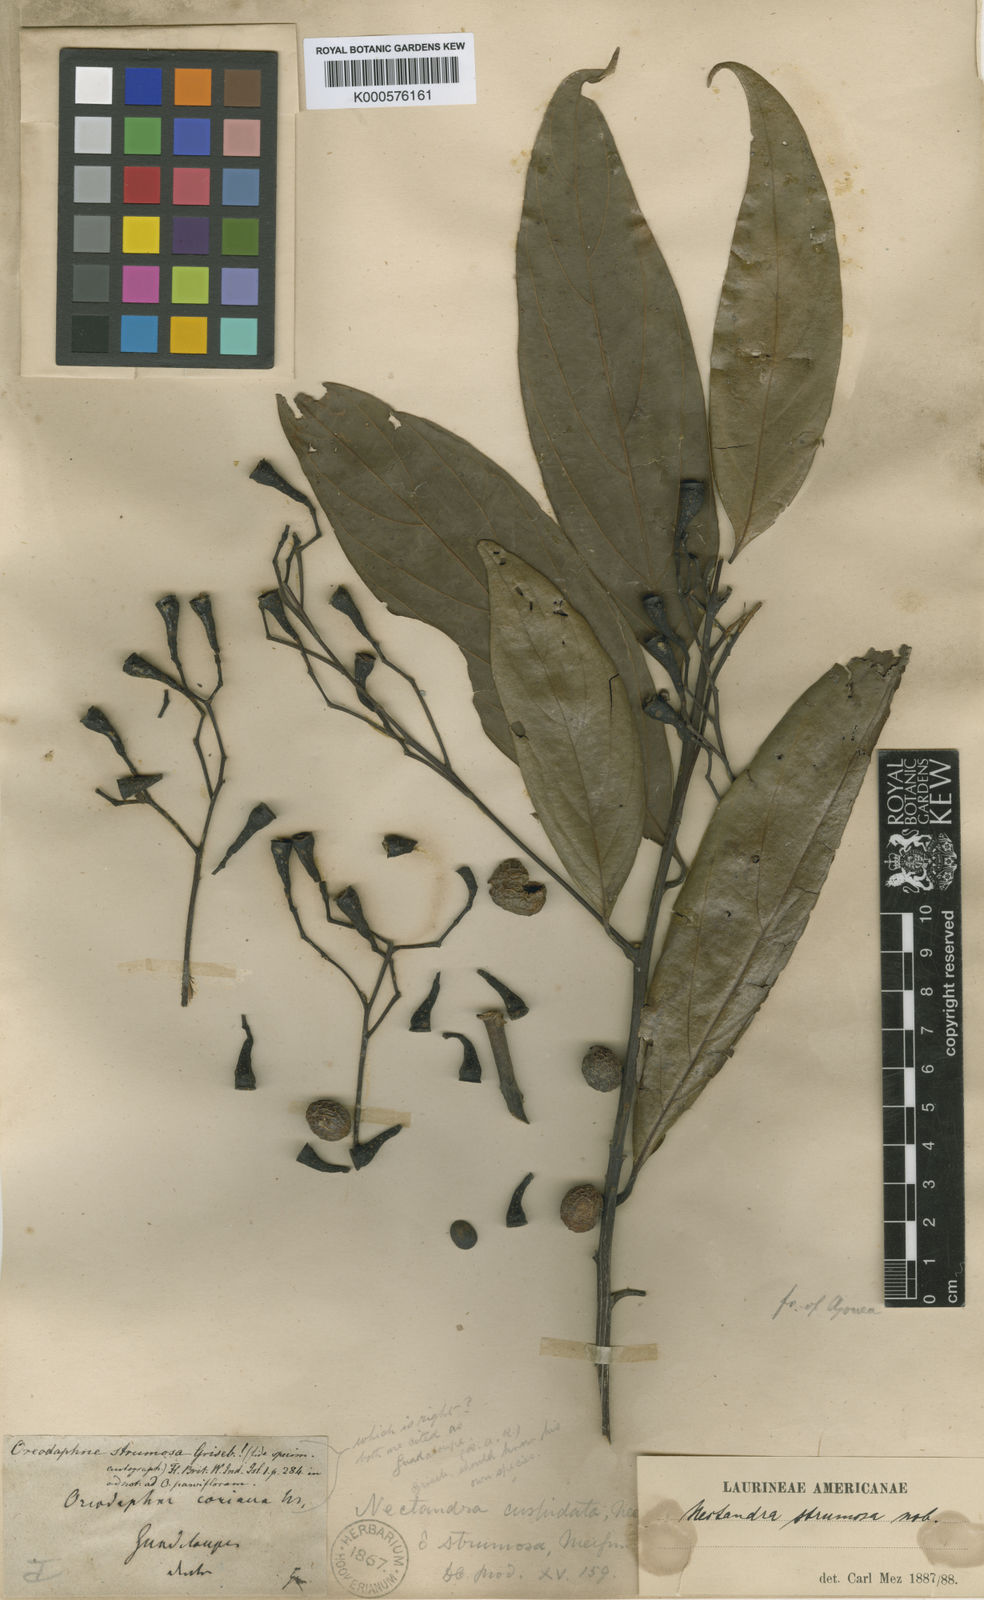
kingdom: Plantae
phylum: Tracheophyta
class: Magnoliopsida
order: Laurales
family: Lauraceae
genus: Nectandra
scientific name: Nectandra membranacea
